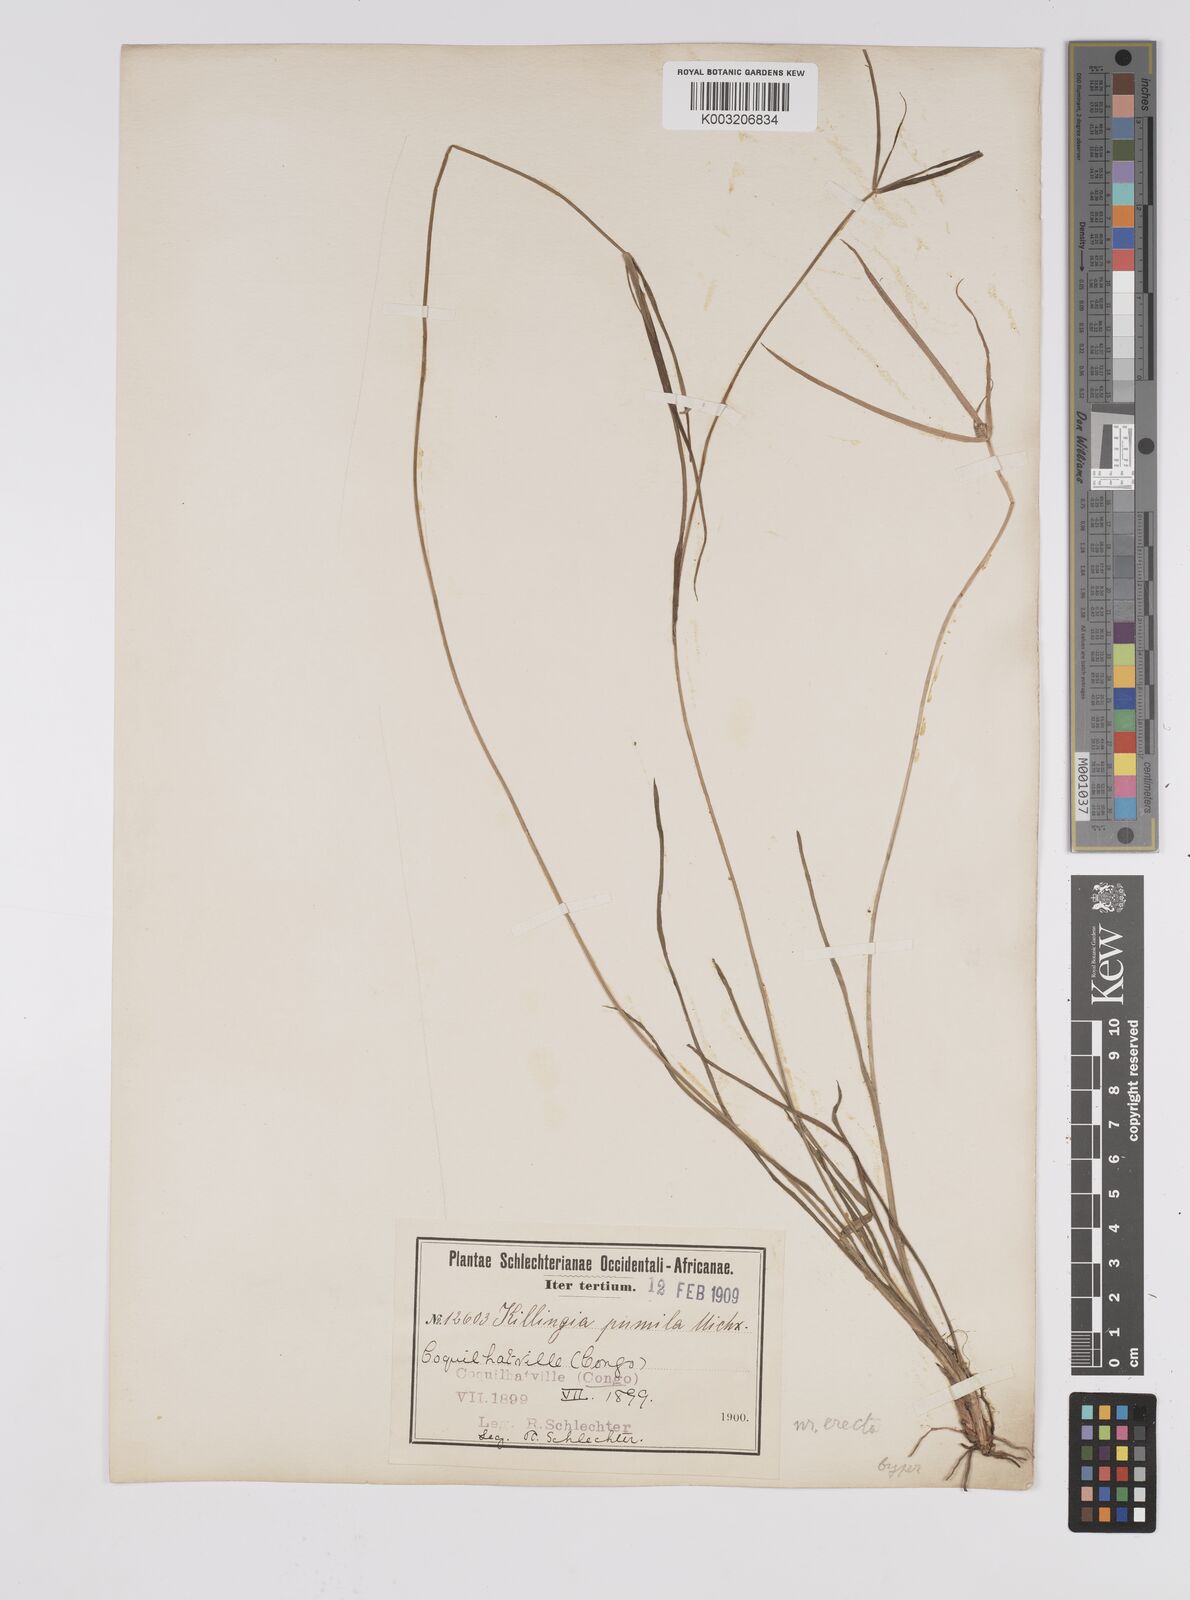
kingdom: Plantae
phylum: Tracheophyta
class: Liliopsida
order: Poales
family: Cyperaceae
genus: Cyperus
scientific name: Cyperus erectus
